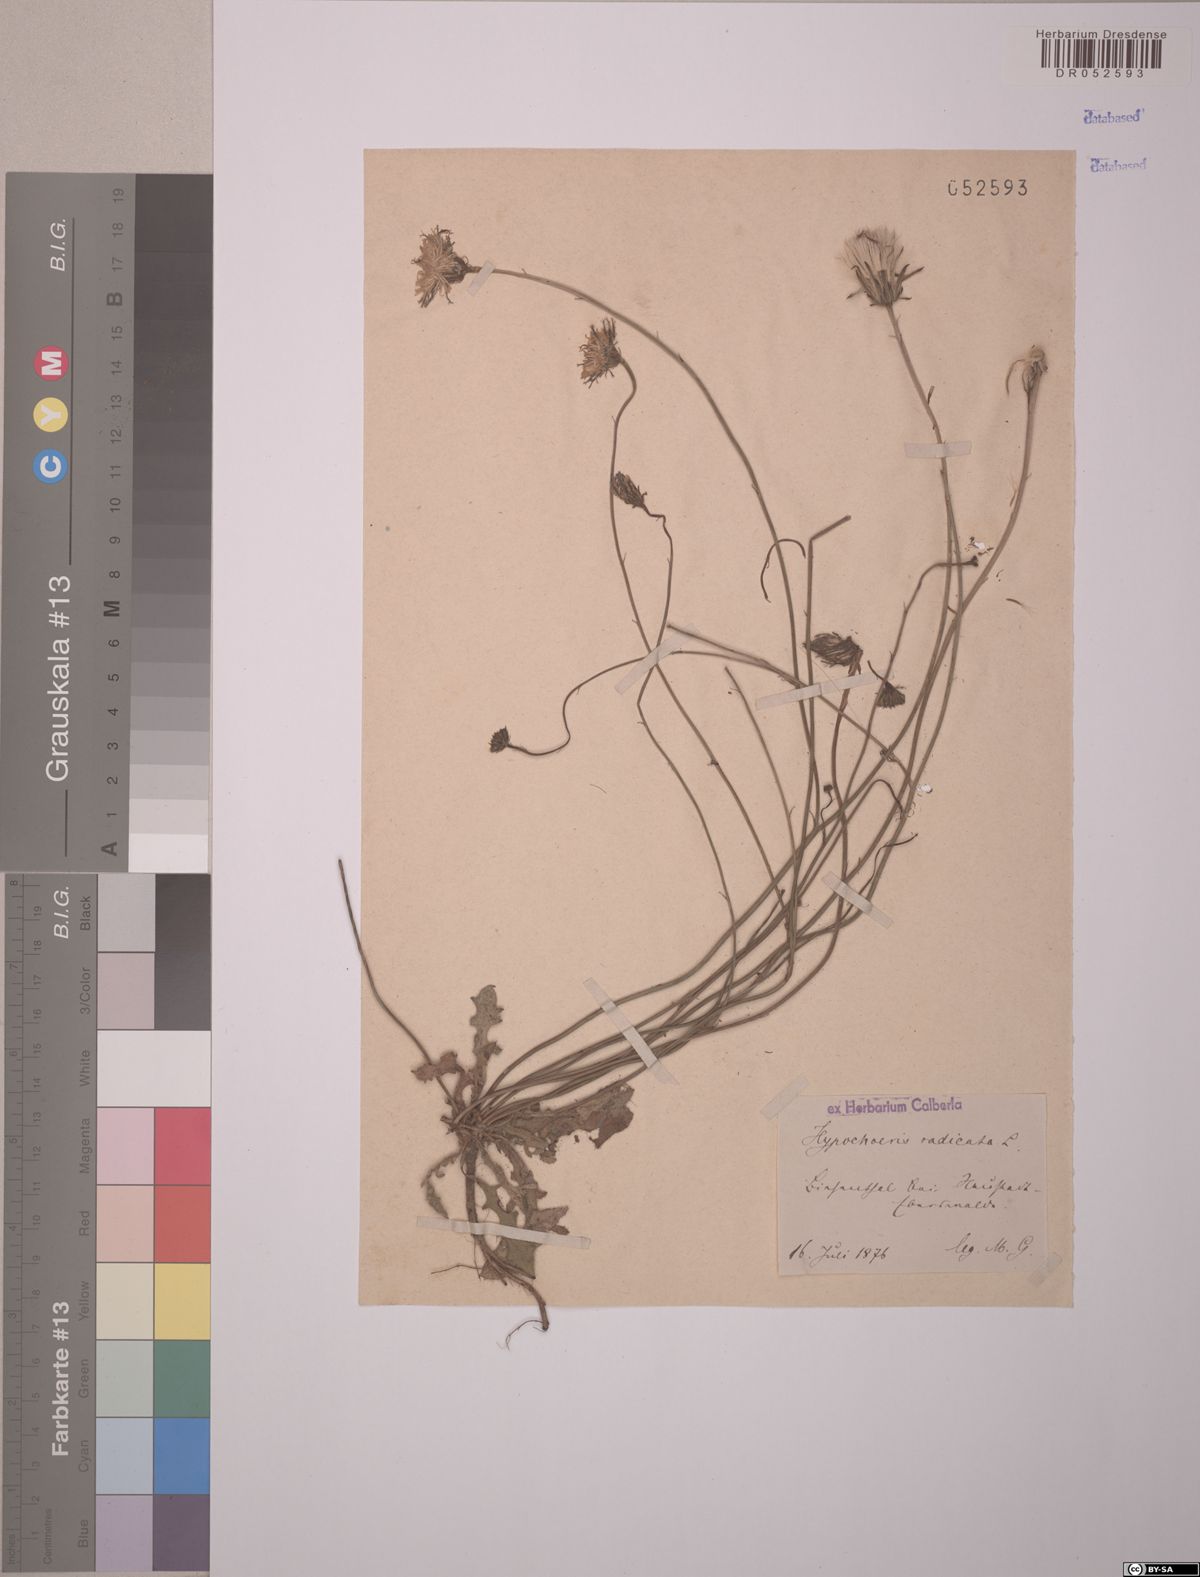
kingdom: Plantae
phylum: Tracheophyta
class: Magnoliopsida
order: Asterales
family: Asteraceae
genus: Hypochaeris
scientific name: Hypochaeris radicata
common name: Flatweed
